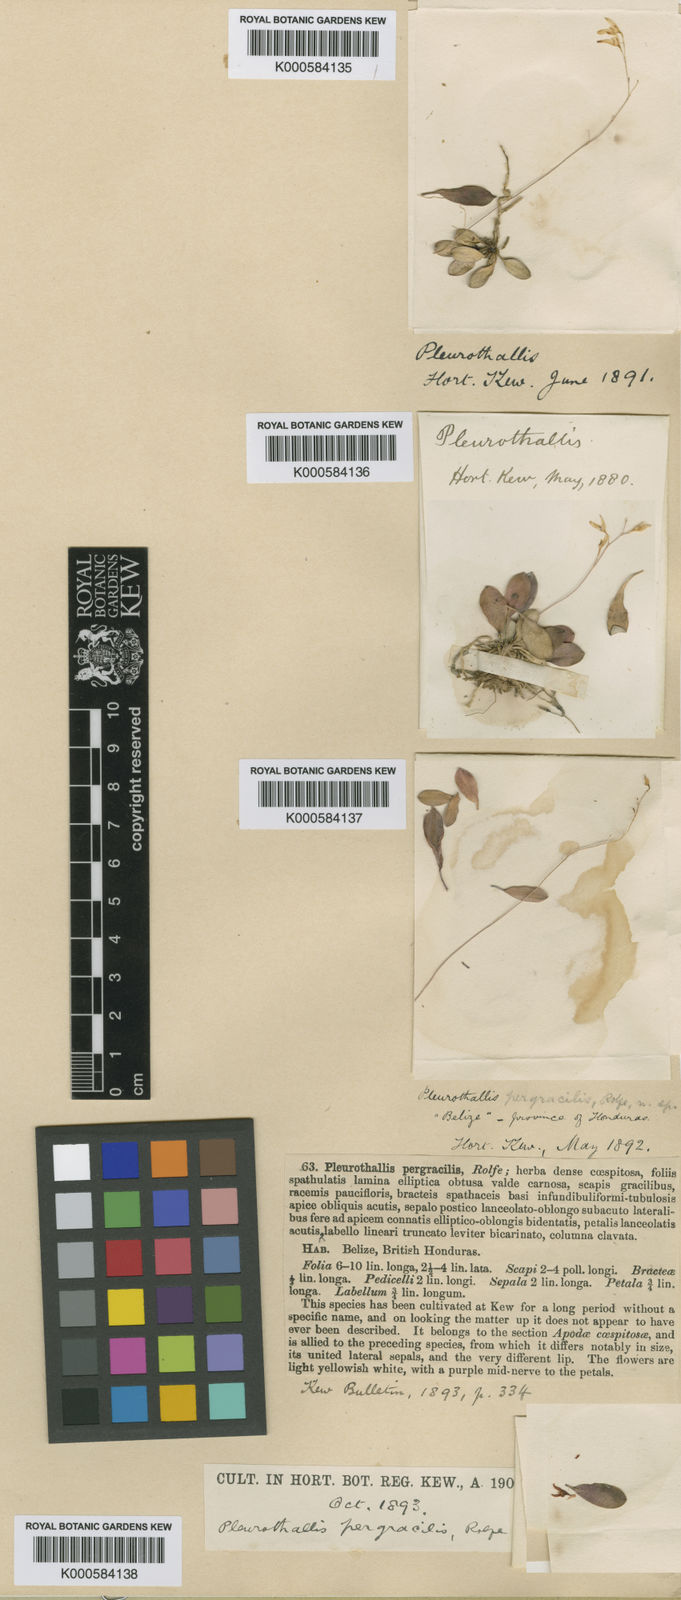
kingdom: Plantae
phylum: Tracheophyta
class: Liliopsida
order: Asparagales
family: Orchidaceae
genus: Specklinia
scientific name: Specklinia grobyi
